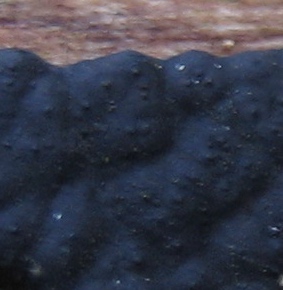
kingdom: Fungi
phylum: Ascomycota
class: Sordariomycetes
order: Xylariales
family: Xylariaceae
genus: Nemania
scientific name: Nemania
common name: kuldyne
